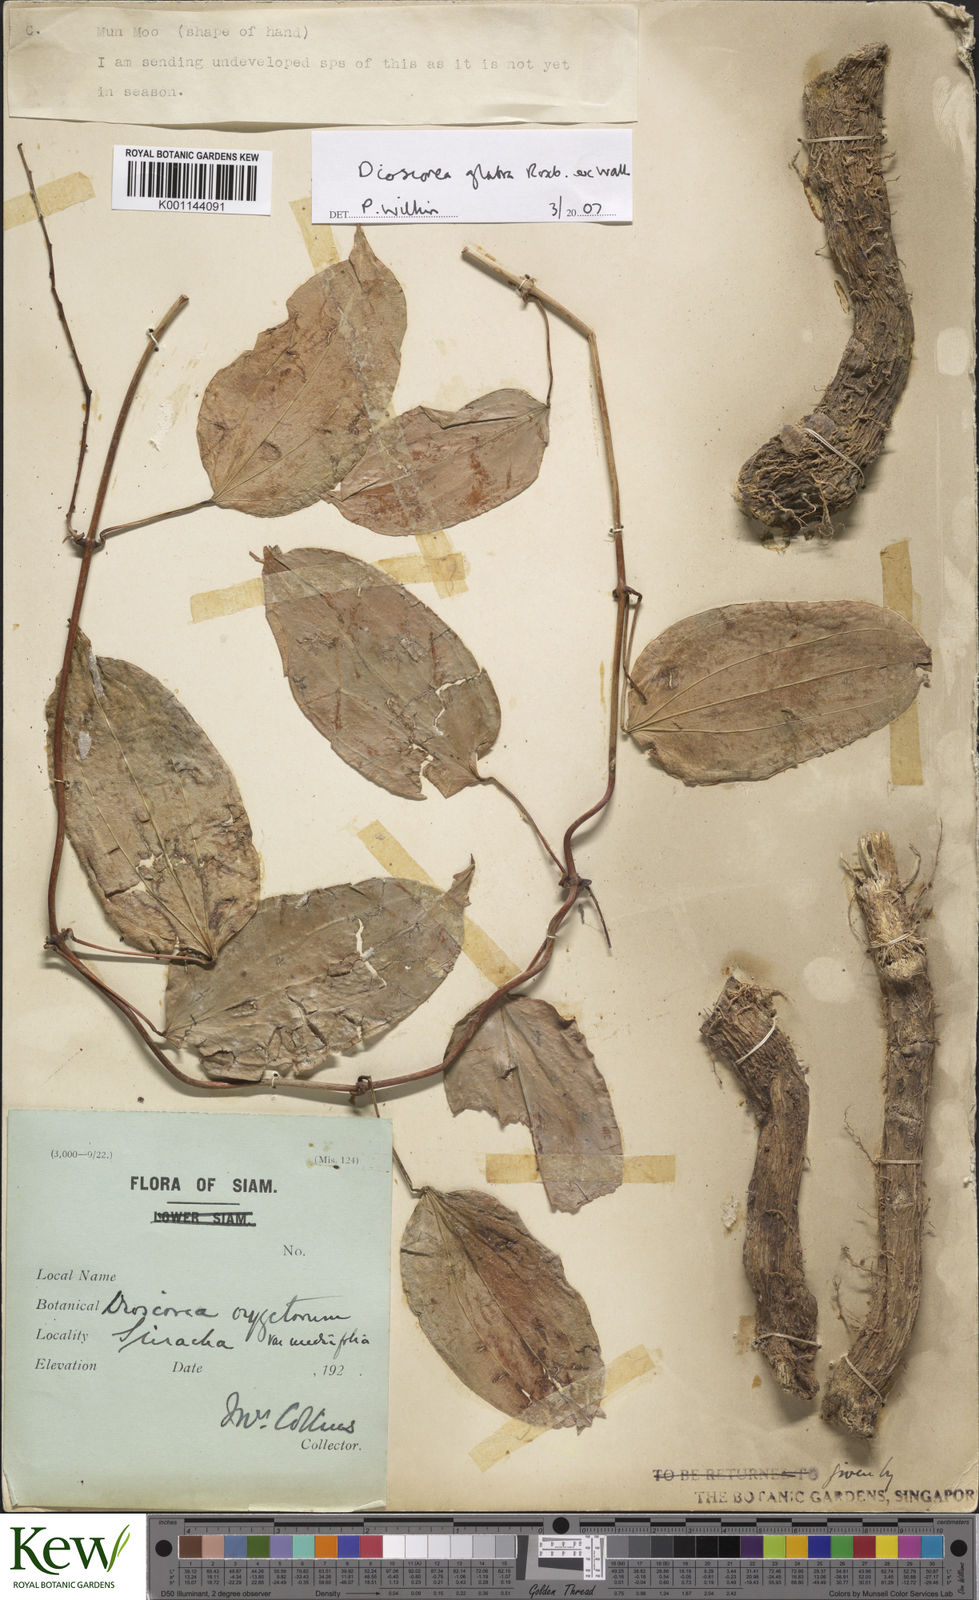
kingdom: Plantae
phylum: Tracheophyta
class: Liliopsida
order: Dioscoreales
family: Dioscoreaceae
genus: Dioscorea
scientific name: Dioscorea glabra
